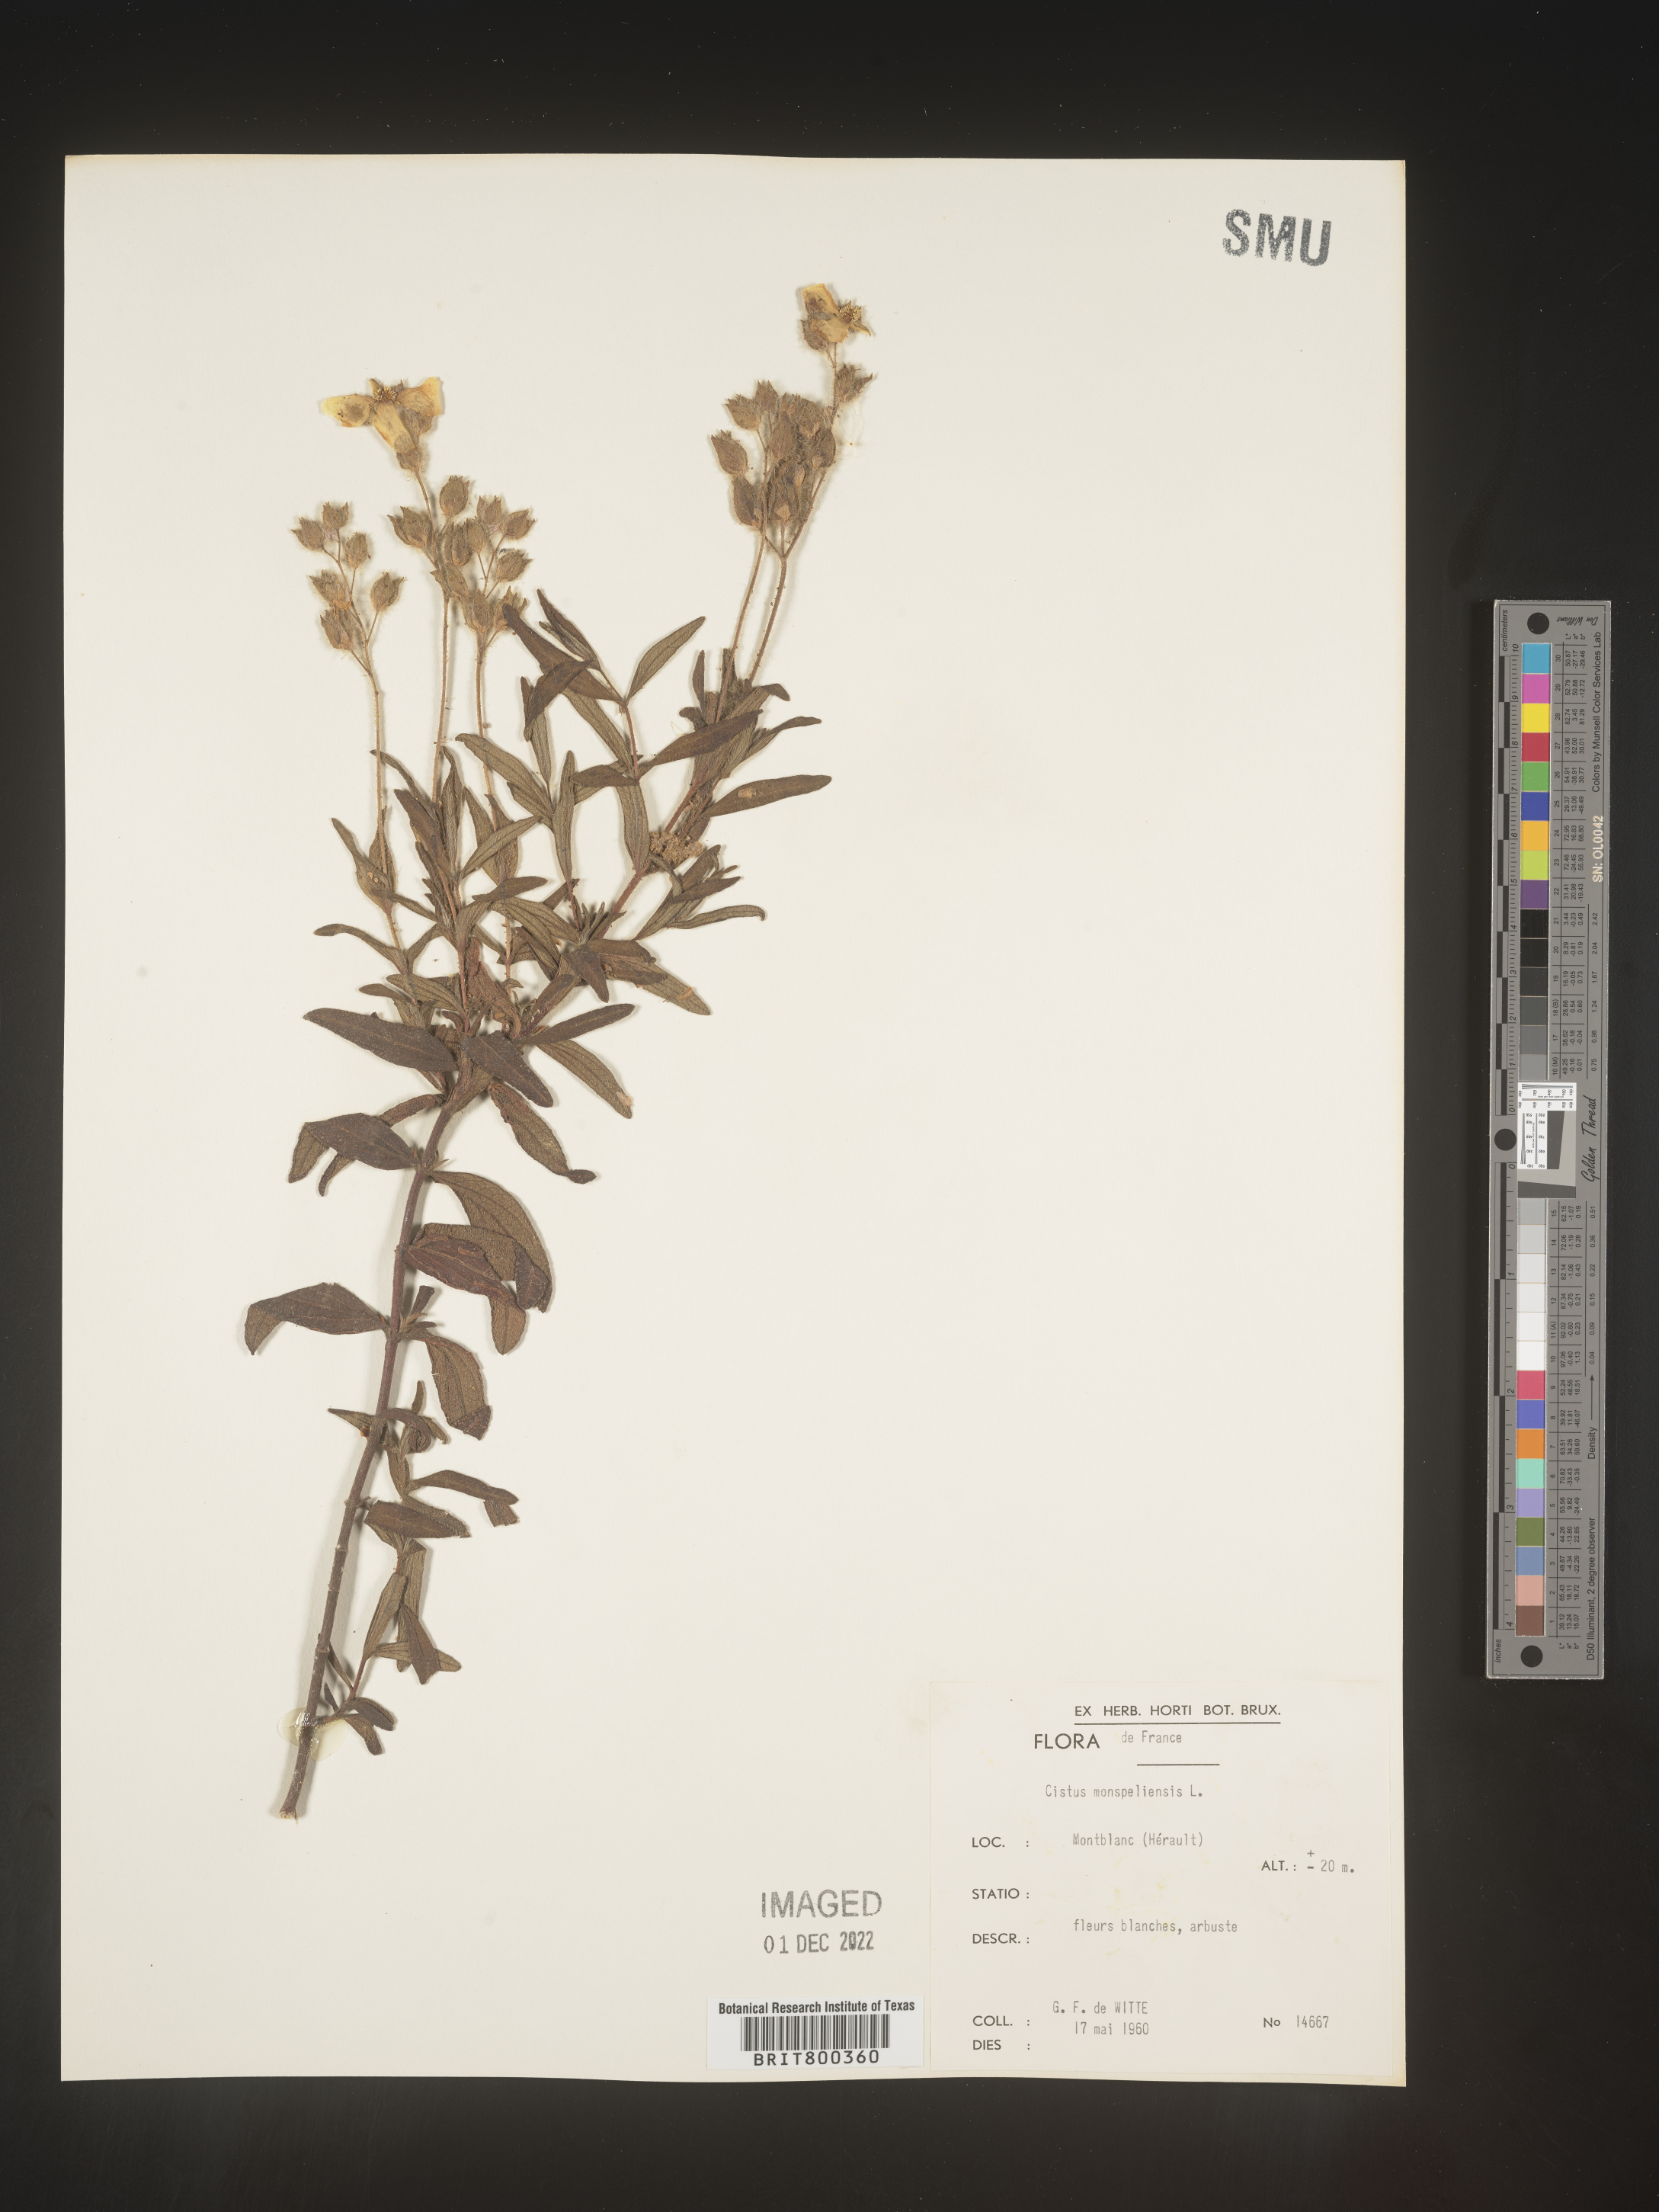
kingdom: Plantae
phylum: Tracheophyta
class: Magnoliopsida
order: Malvales
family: Cistaceae
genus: Cistus
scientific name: Cistus
